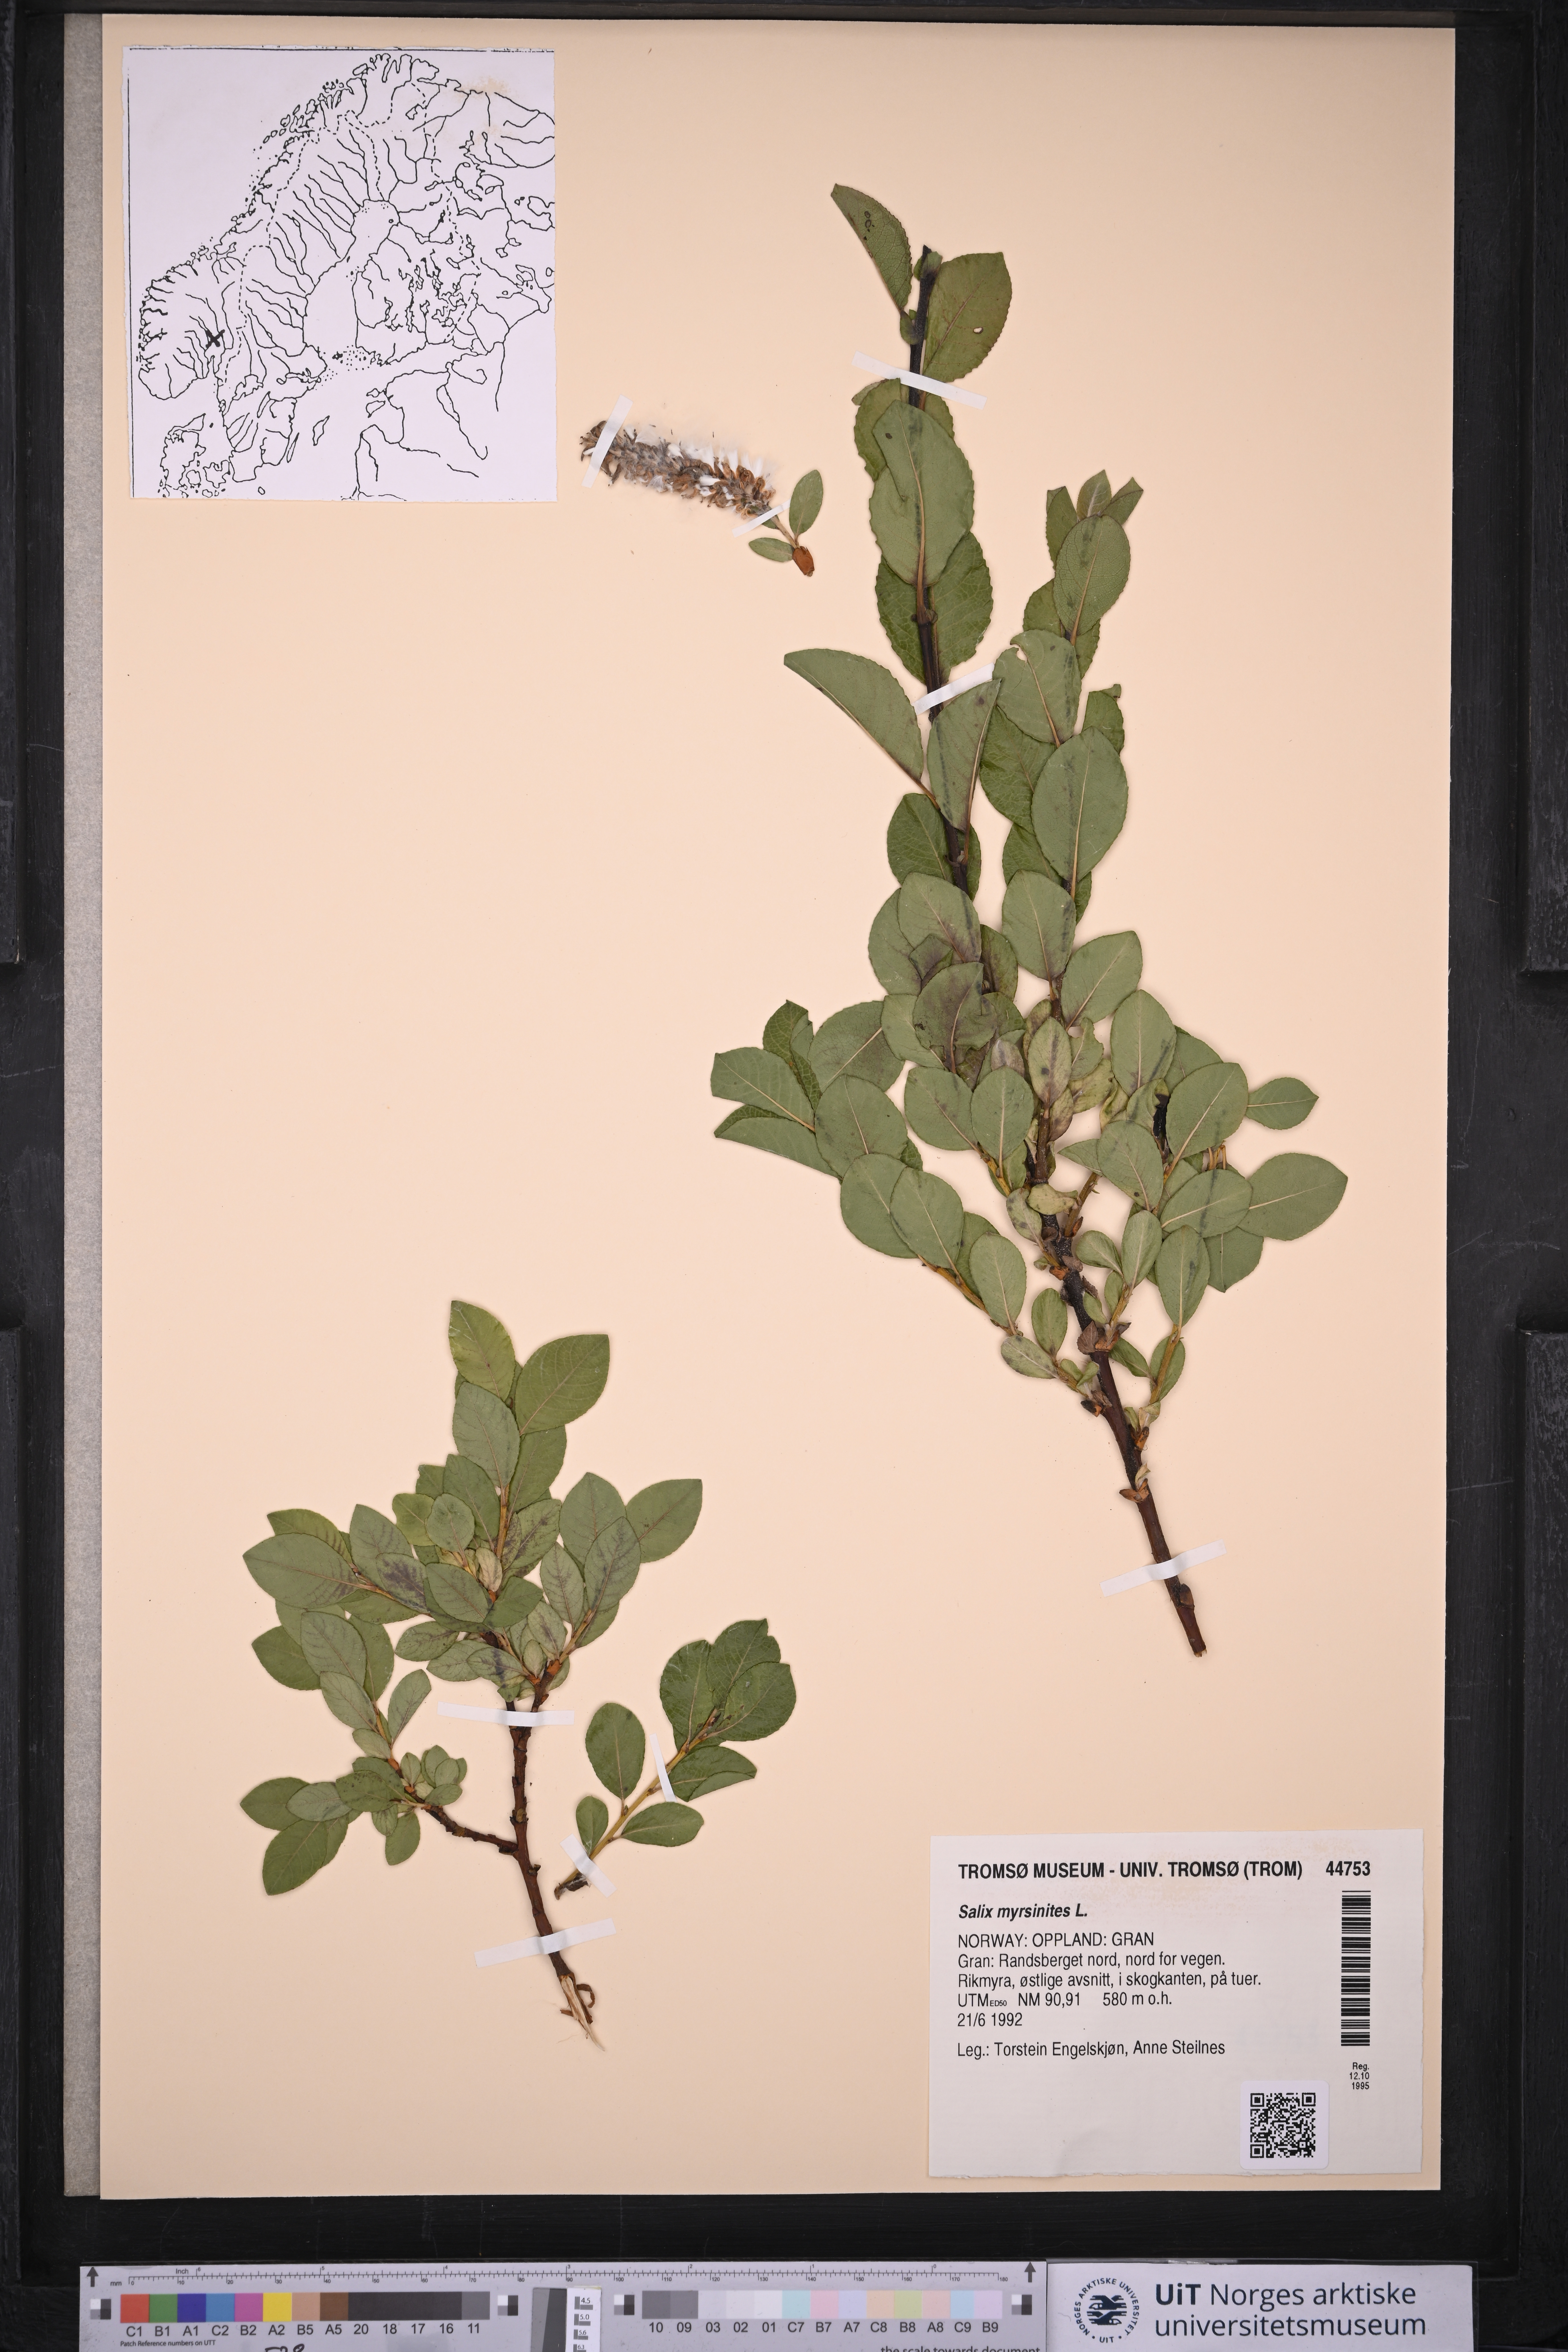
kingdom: Plantae
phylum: Tracheophyta
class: Magnoliopsida
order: Malpighiales
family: Salicaceae
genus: Salix
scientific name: Salix myrsinites
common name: Myrtle willow
